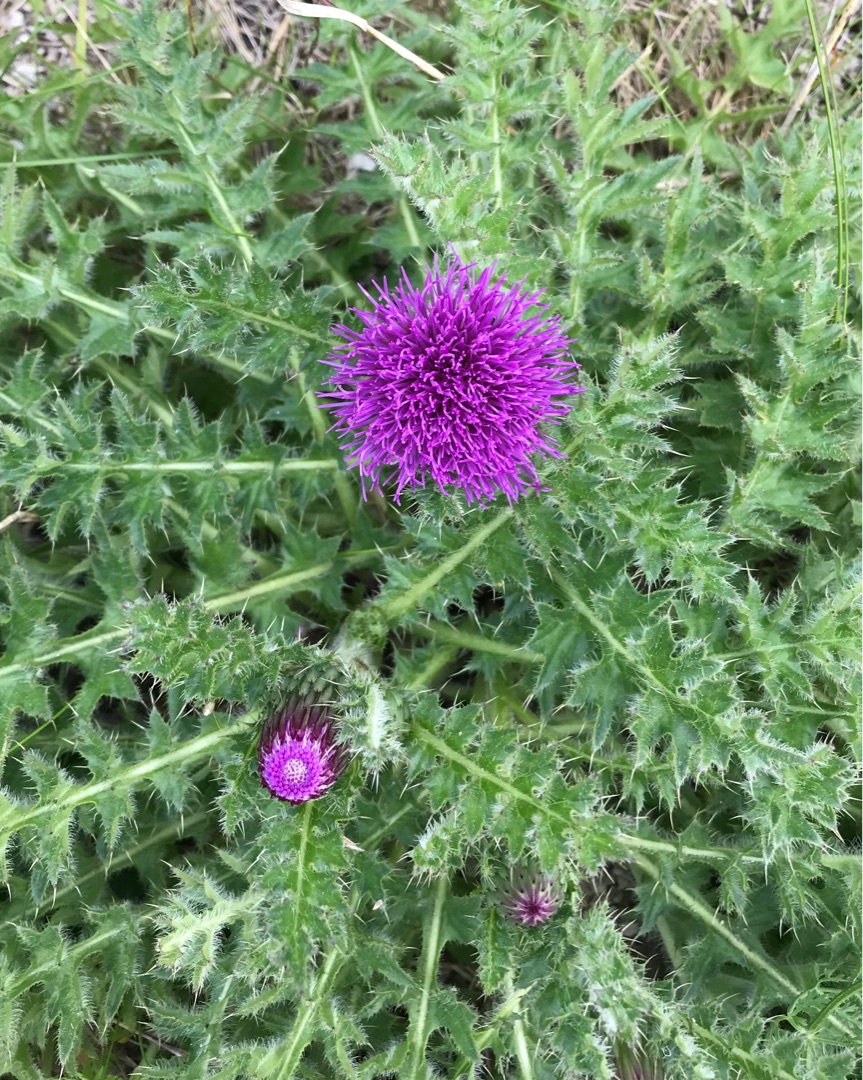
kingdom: Plantae
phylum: Tracheophyta
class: Magnoliopsida
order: Asterales
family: Asteraceae
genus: Cirsium
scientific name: Cirsium acaule
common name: Lav tidsel
